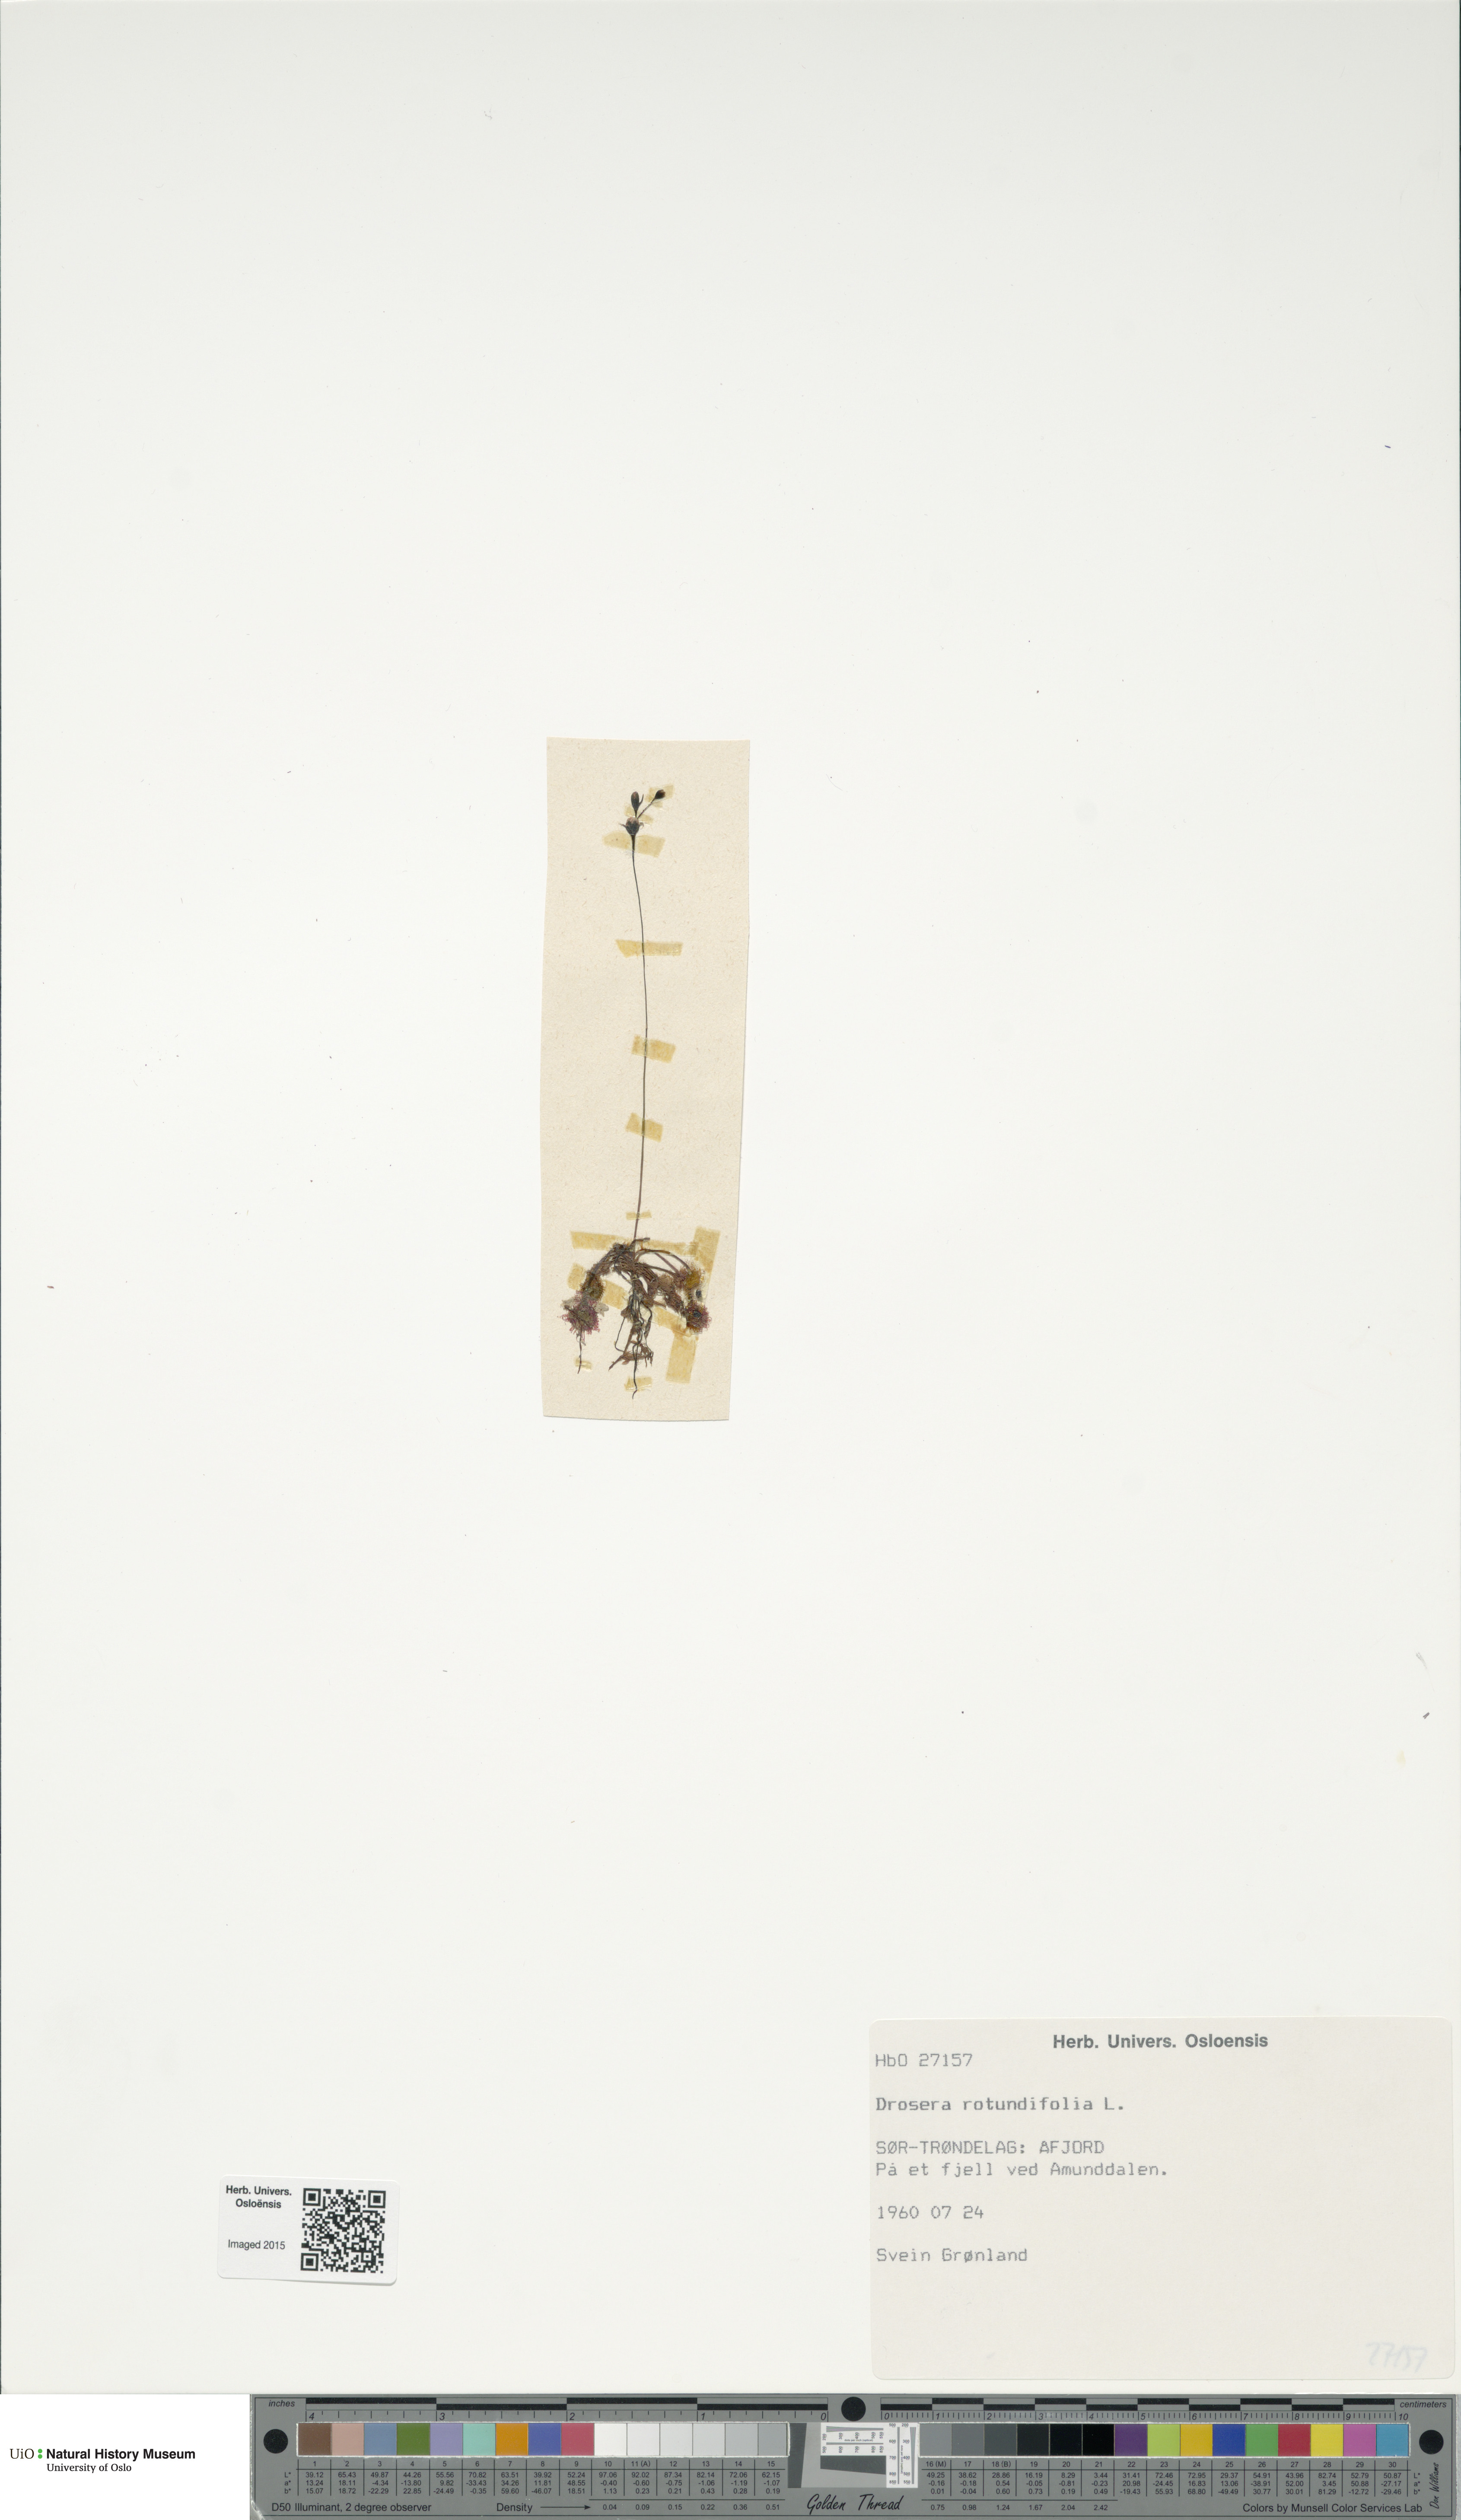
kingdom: Plantae
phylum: Tracheophyta
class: Magnoliopsida
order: Caryophyllales
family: Droseraceae
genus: Drosera
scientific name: Drosera rotundifolia
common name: Round-leaved sundew
